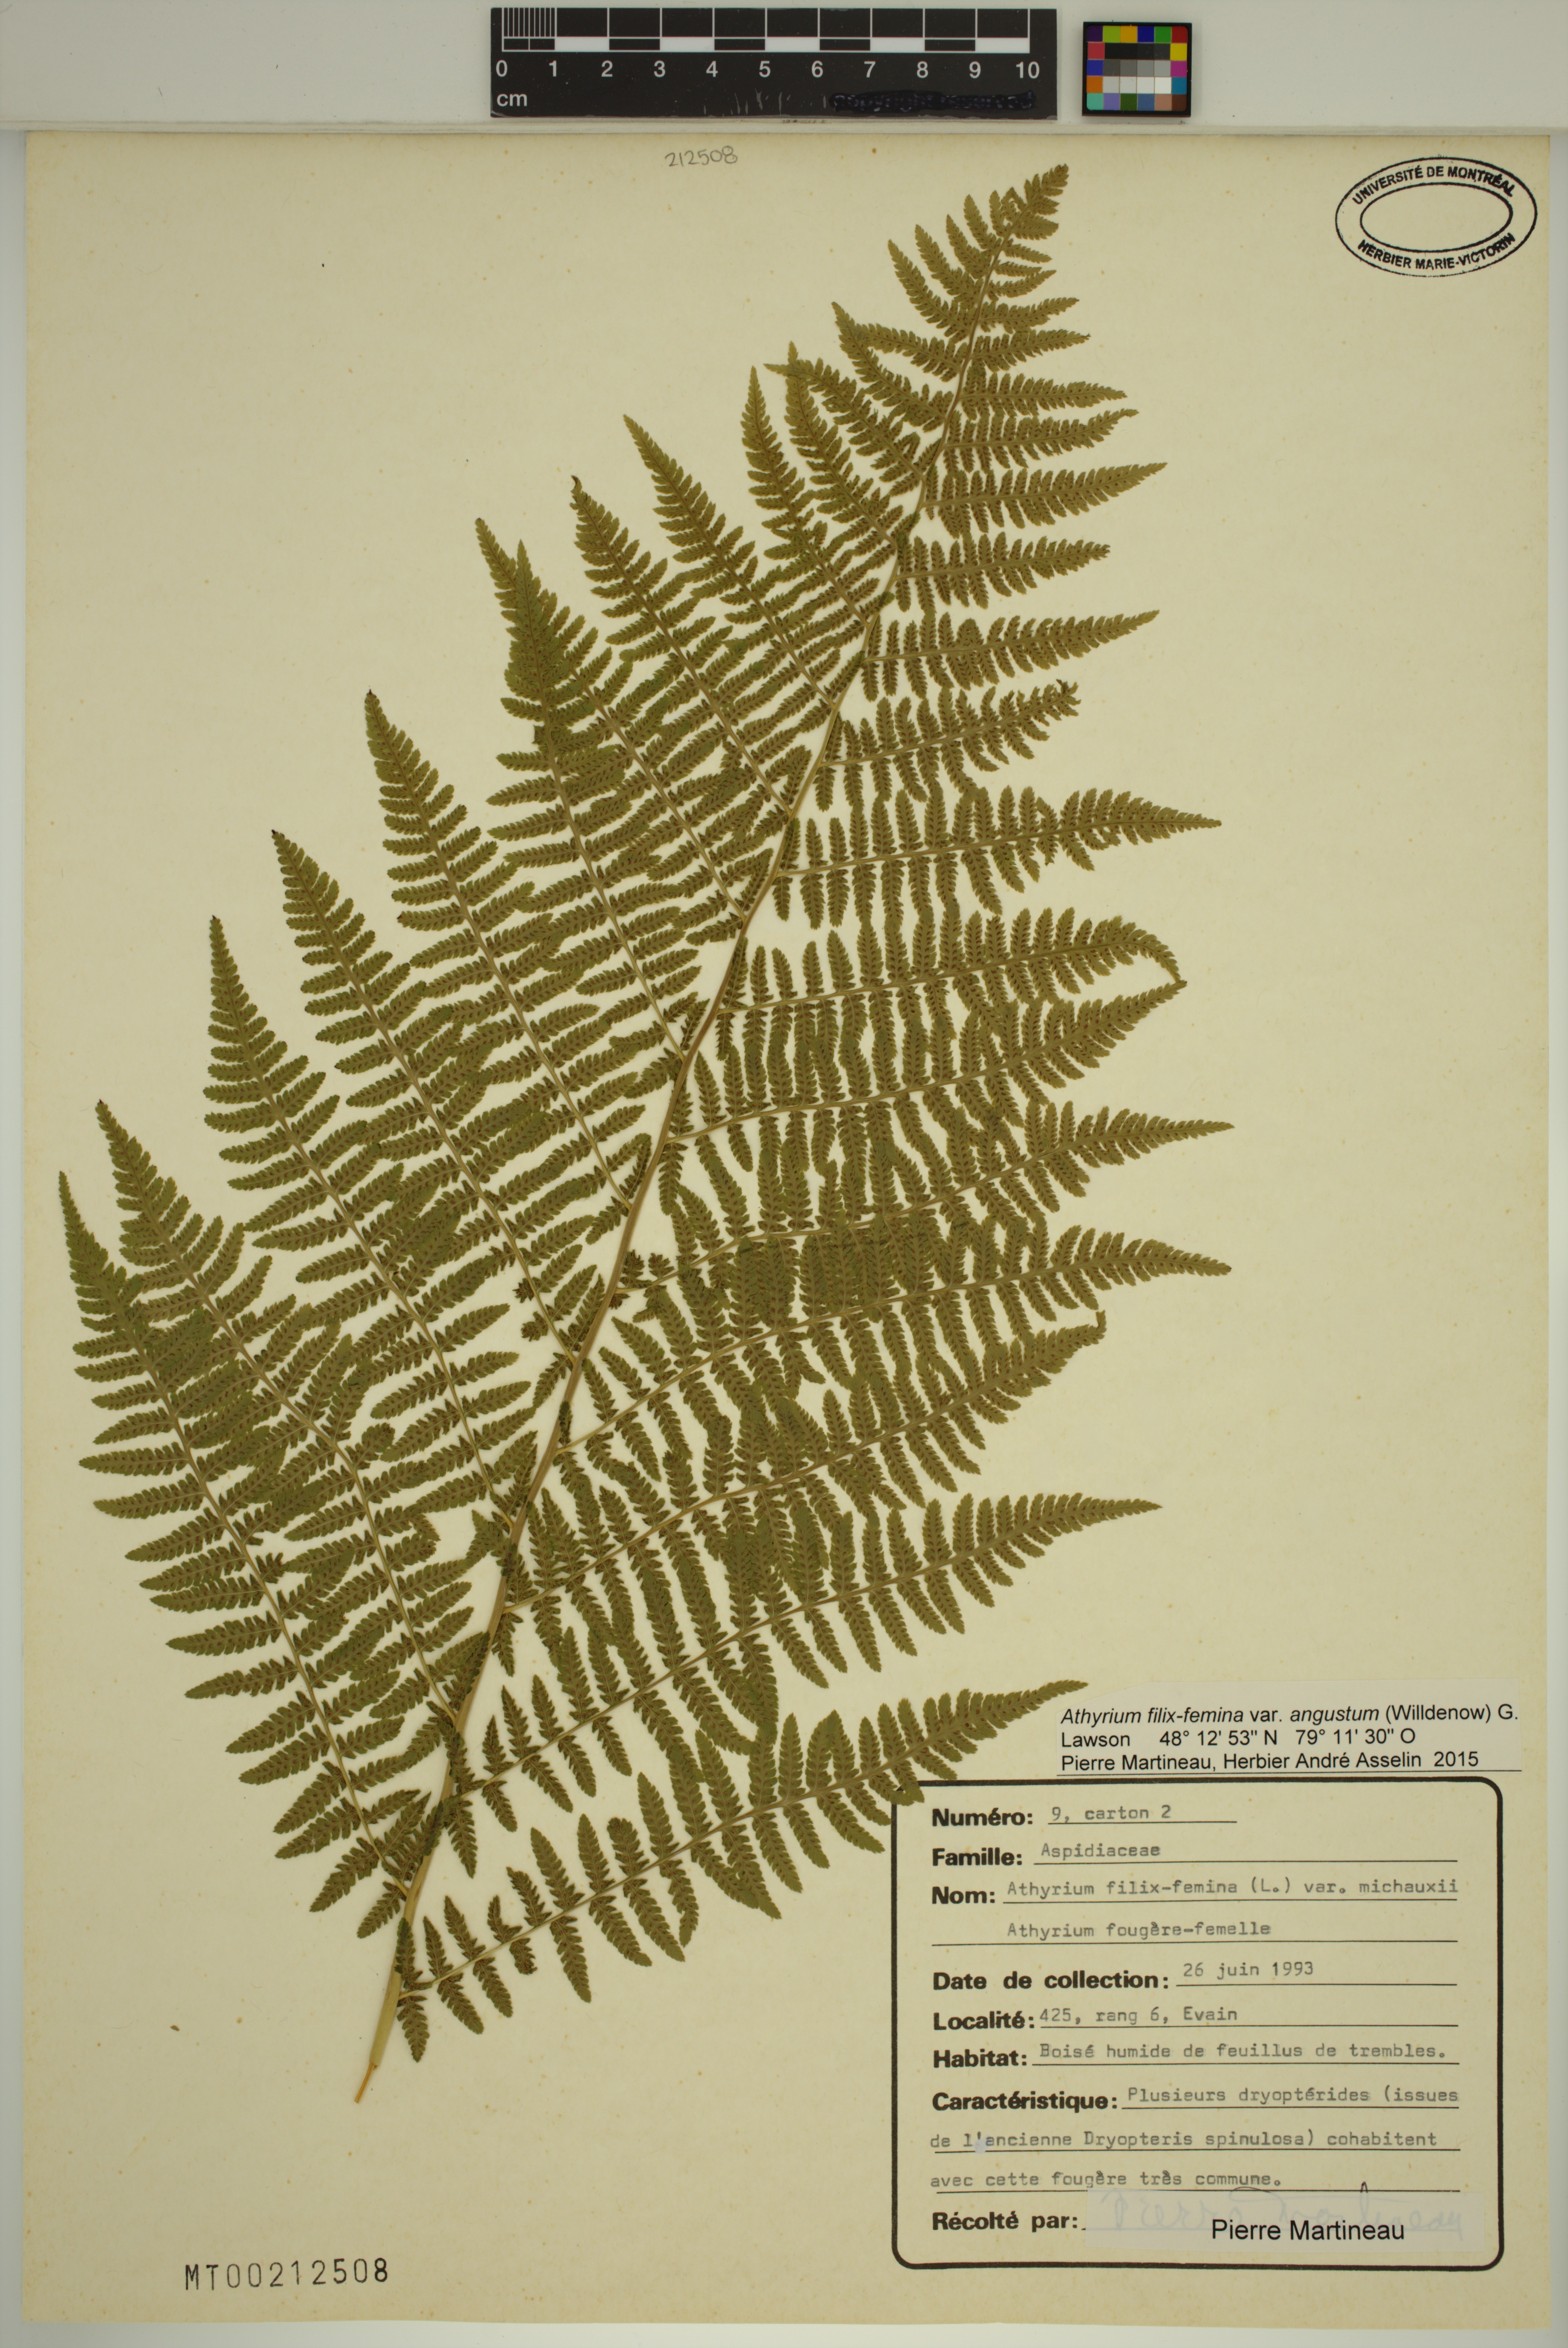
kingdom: Plantae
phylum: Tracheophyta
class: Polypodiopsida
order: Polypodiales
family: Athyriaceae
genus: Athyrium
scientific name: Athyrium angustum
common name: Northern lady fern
